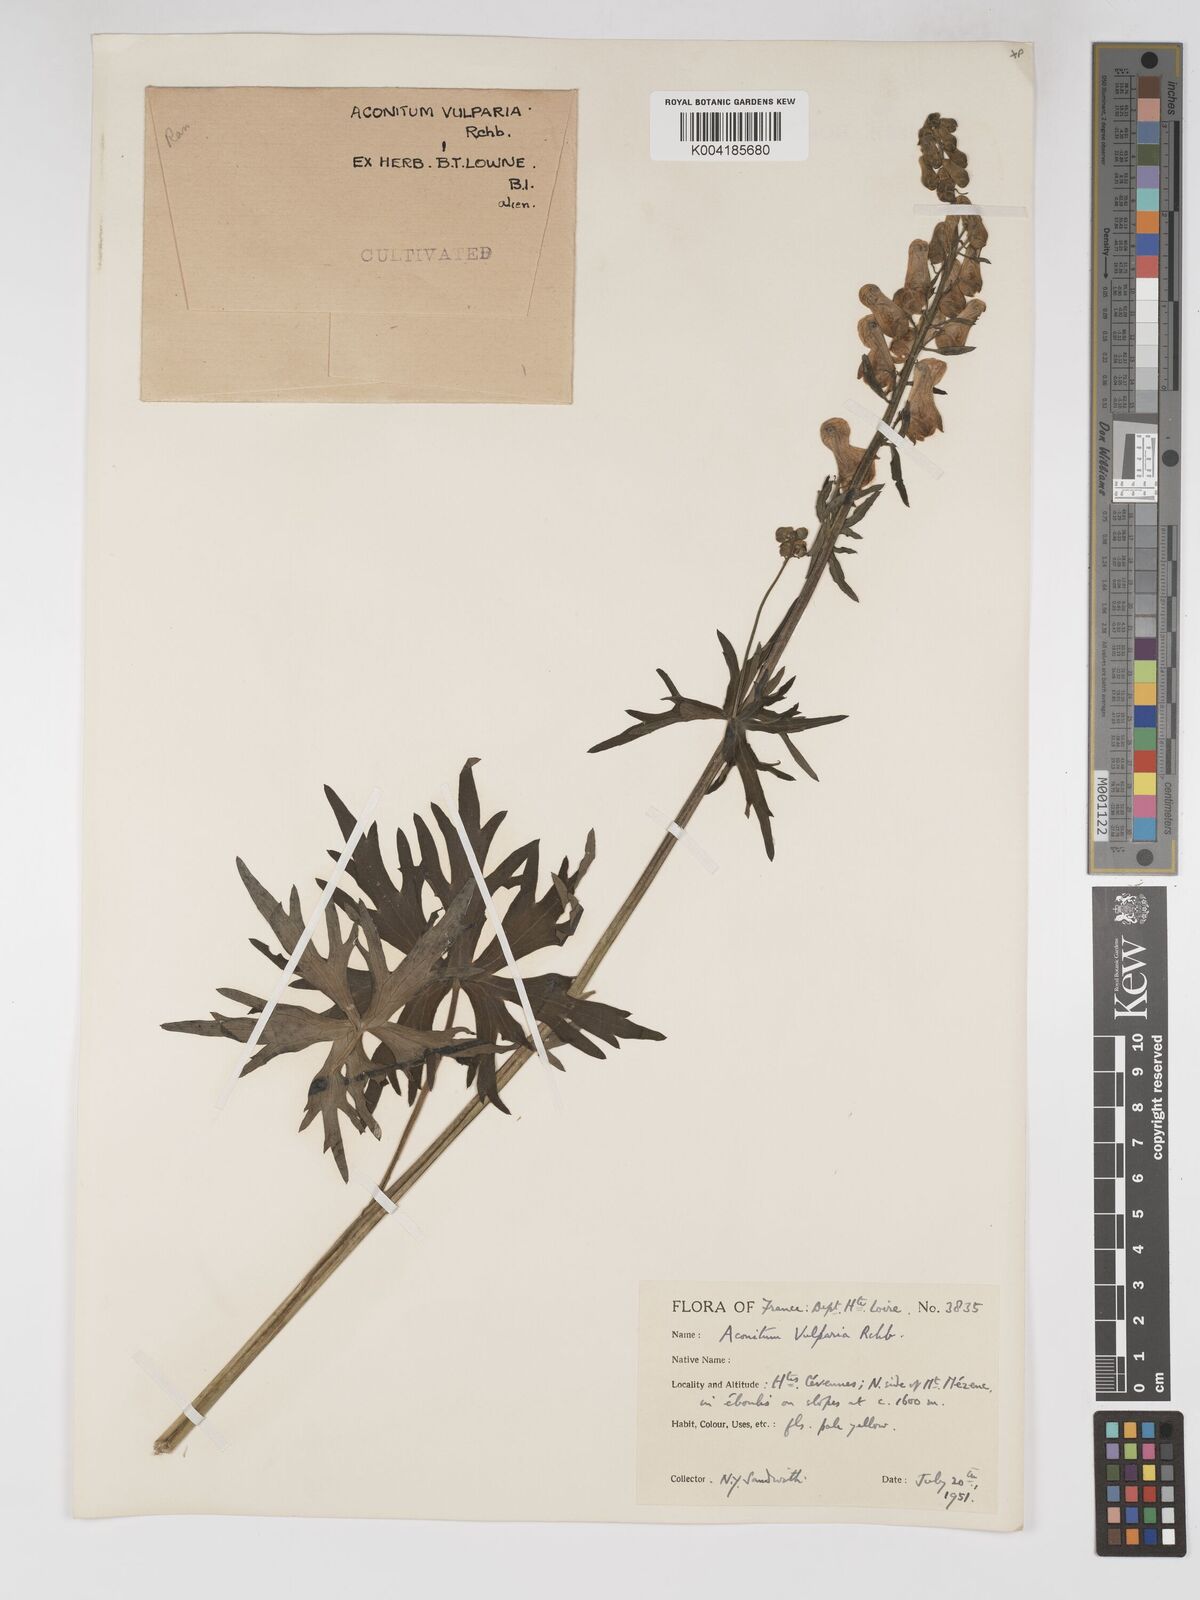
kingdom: Plantae
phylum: Tracheophyta
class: Magnoliopsida
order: Ranunculales
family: Ranunculaceae
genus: Aconitum
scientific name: Aconitum lycoctonum
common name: Wolf's-bane
